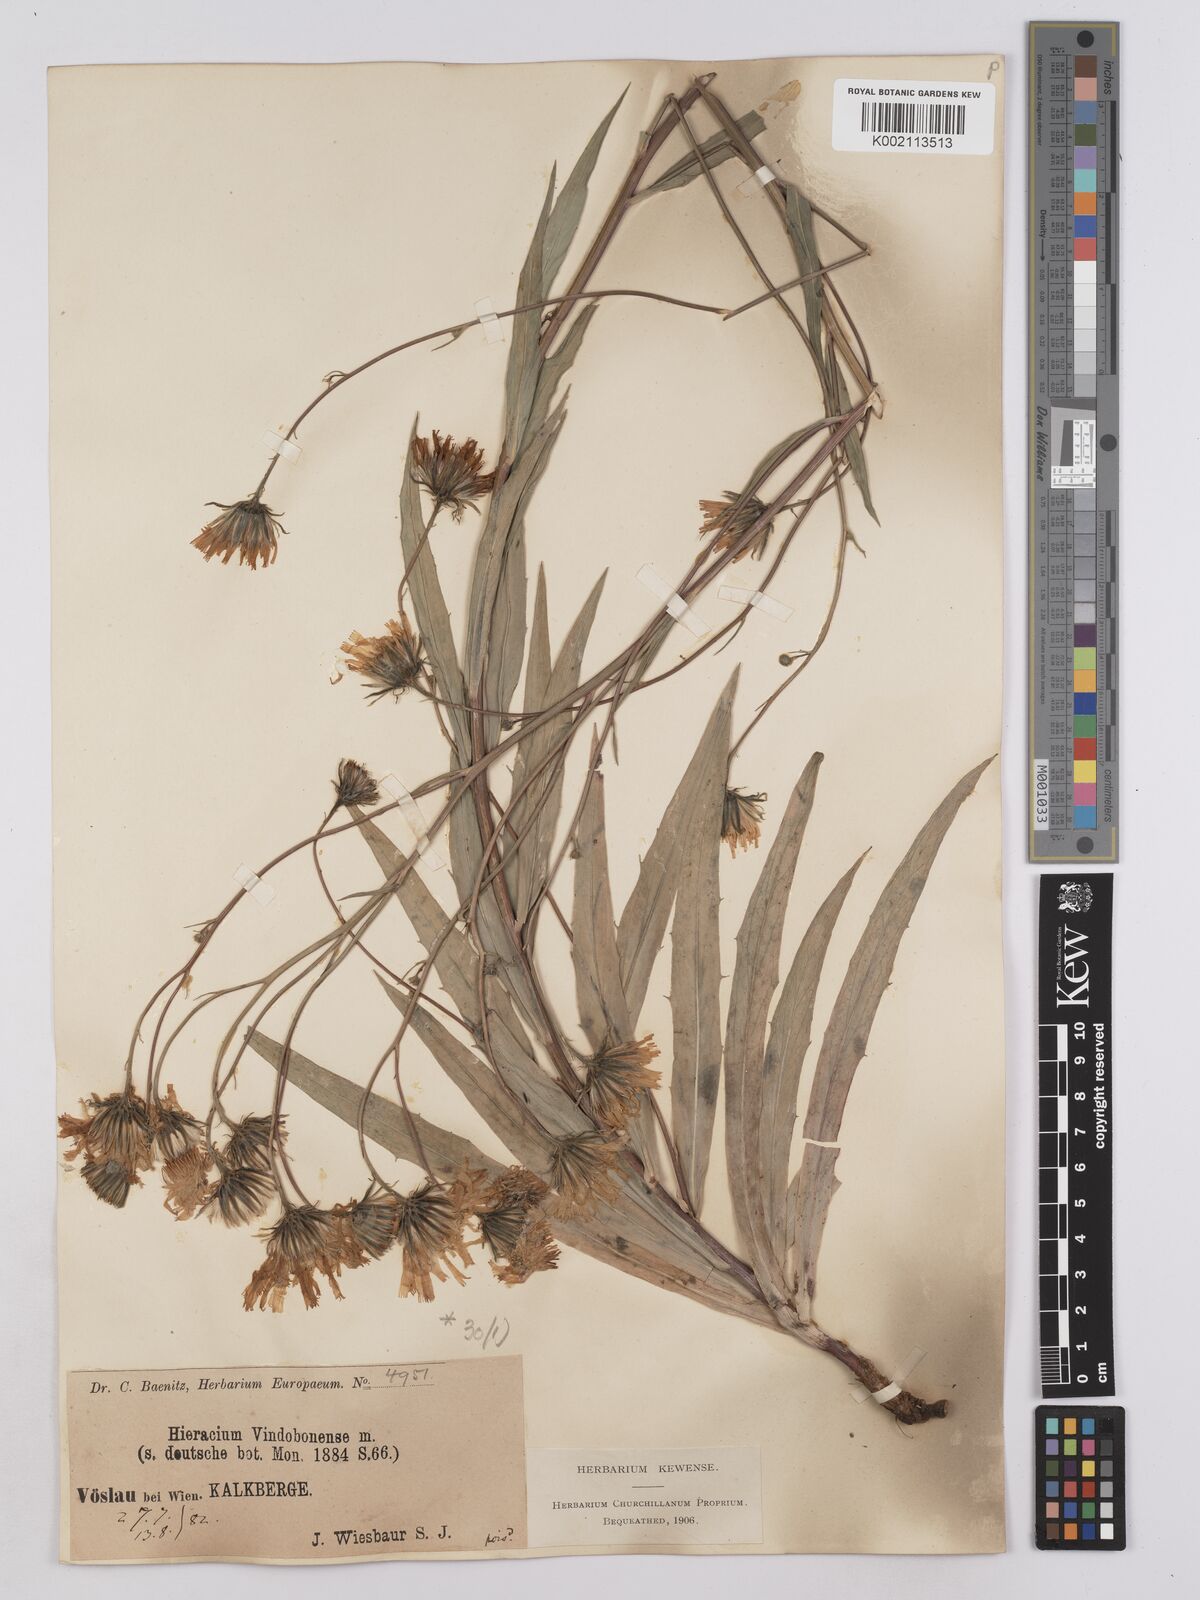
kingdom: Plantae
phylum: Tracheophyta
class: Magnoliopsida
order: Asterales
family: Asteraceae
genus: Hieracium
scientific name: Hieracium vindobonense
